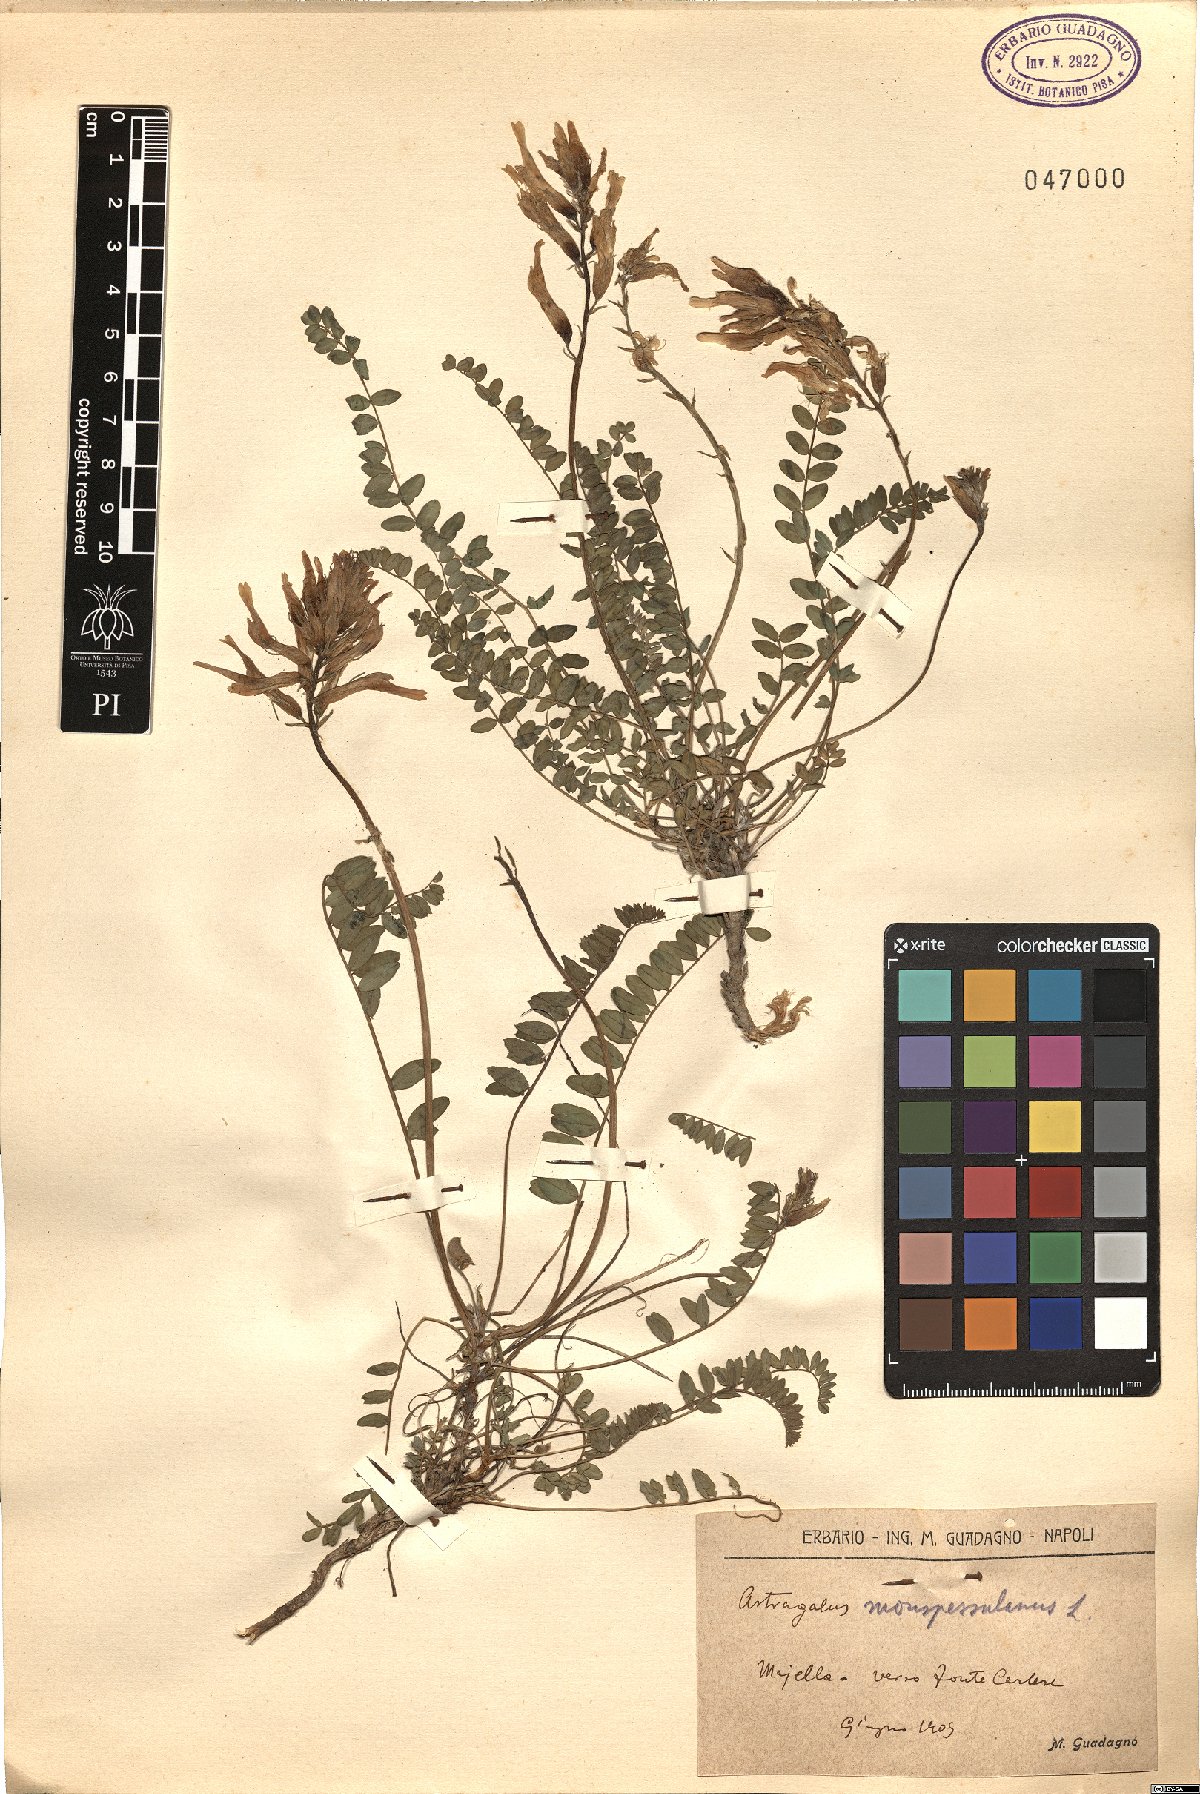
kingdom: Plantae
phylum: Tracheophyta
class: Magnoliopsida
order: Fabales
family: Fabaceae
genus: Astragalus
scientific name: Astragalus monspessulanus
